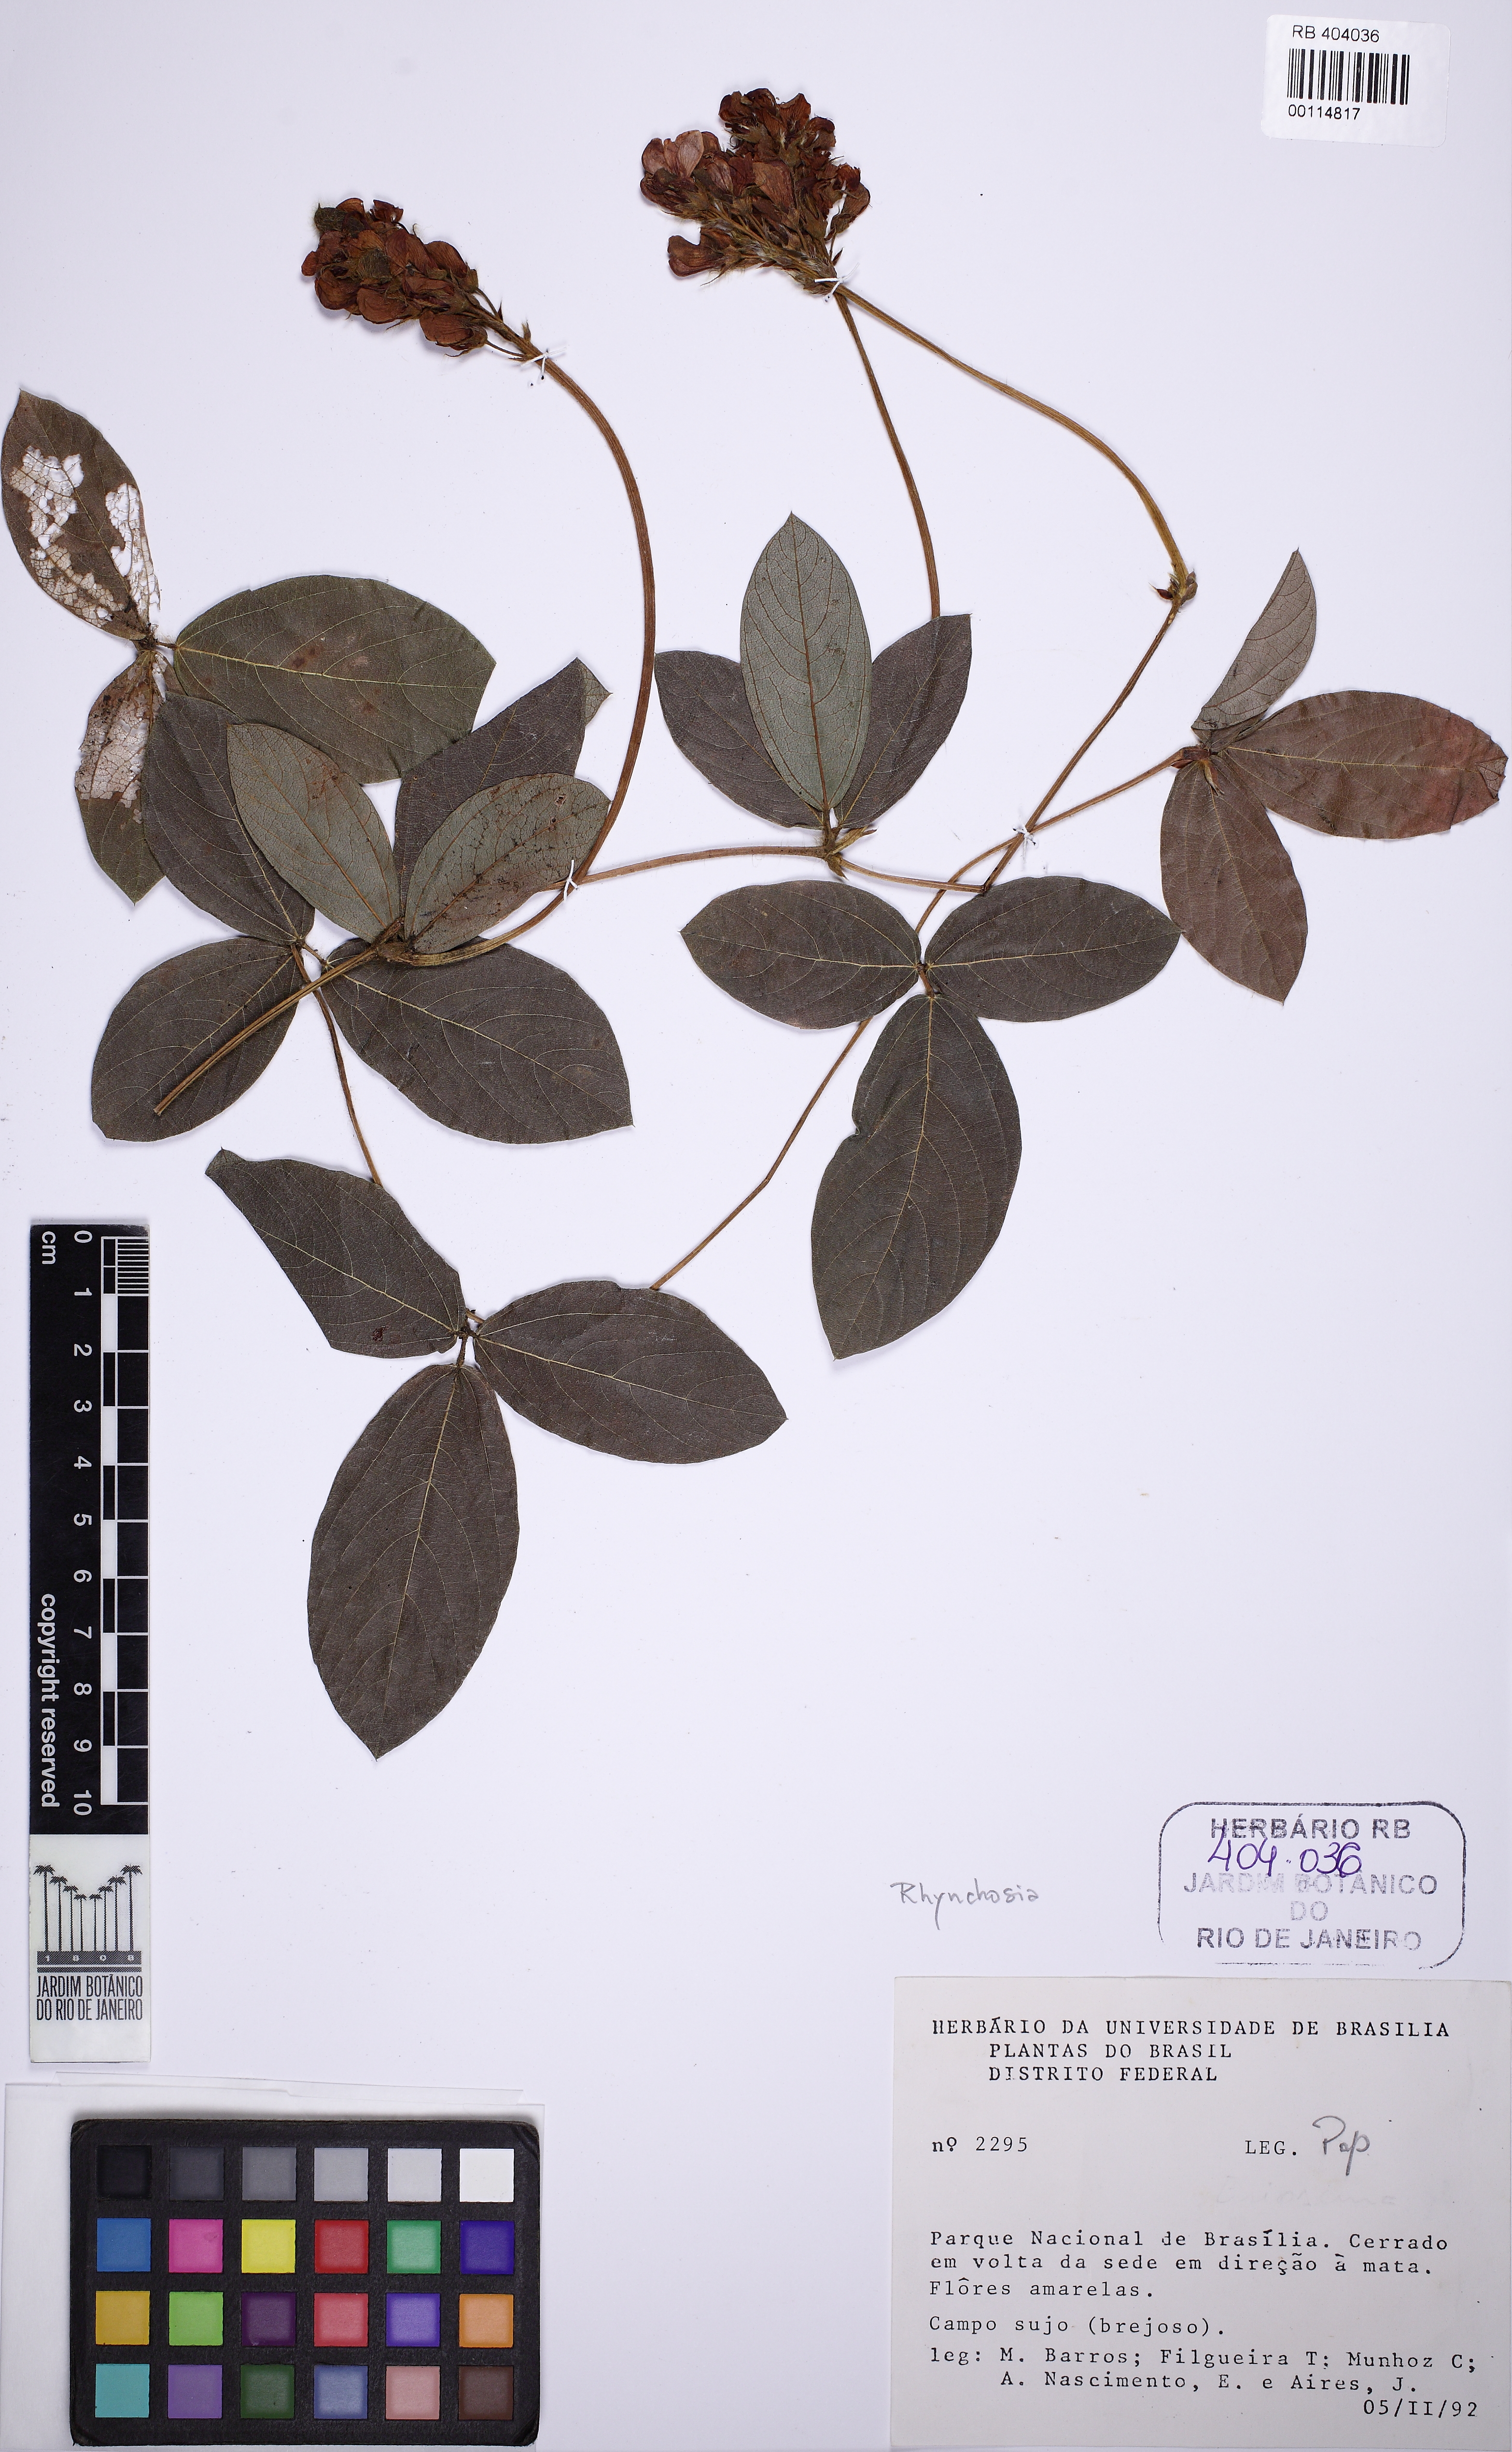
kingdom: Plantae
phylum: Tracheophyta
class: Magnoliopsida
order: Fabales
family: Fabaceae
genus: Eriosema
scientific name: Eriosema glaziovii
